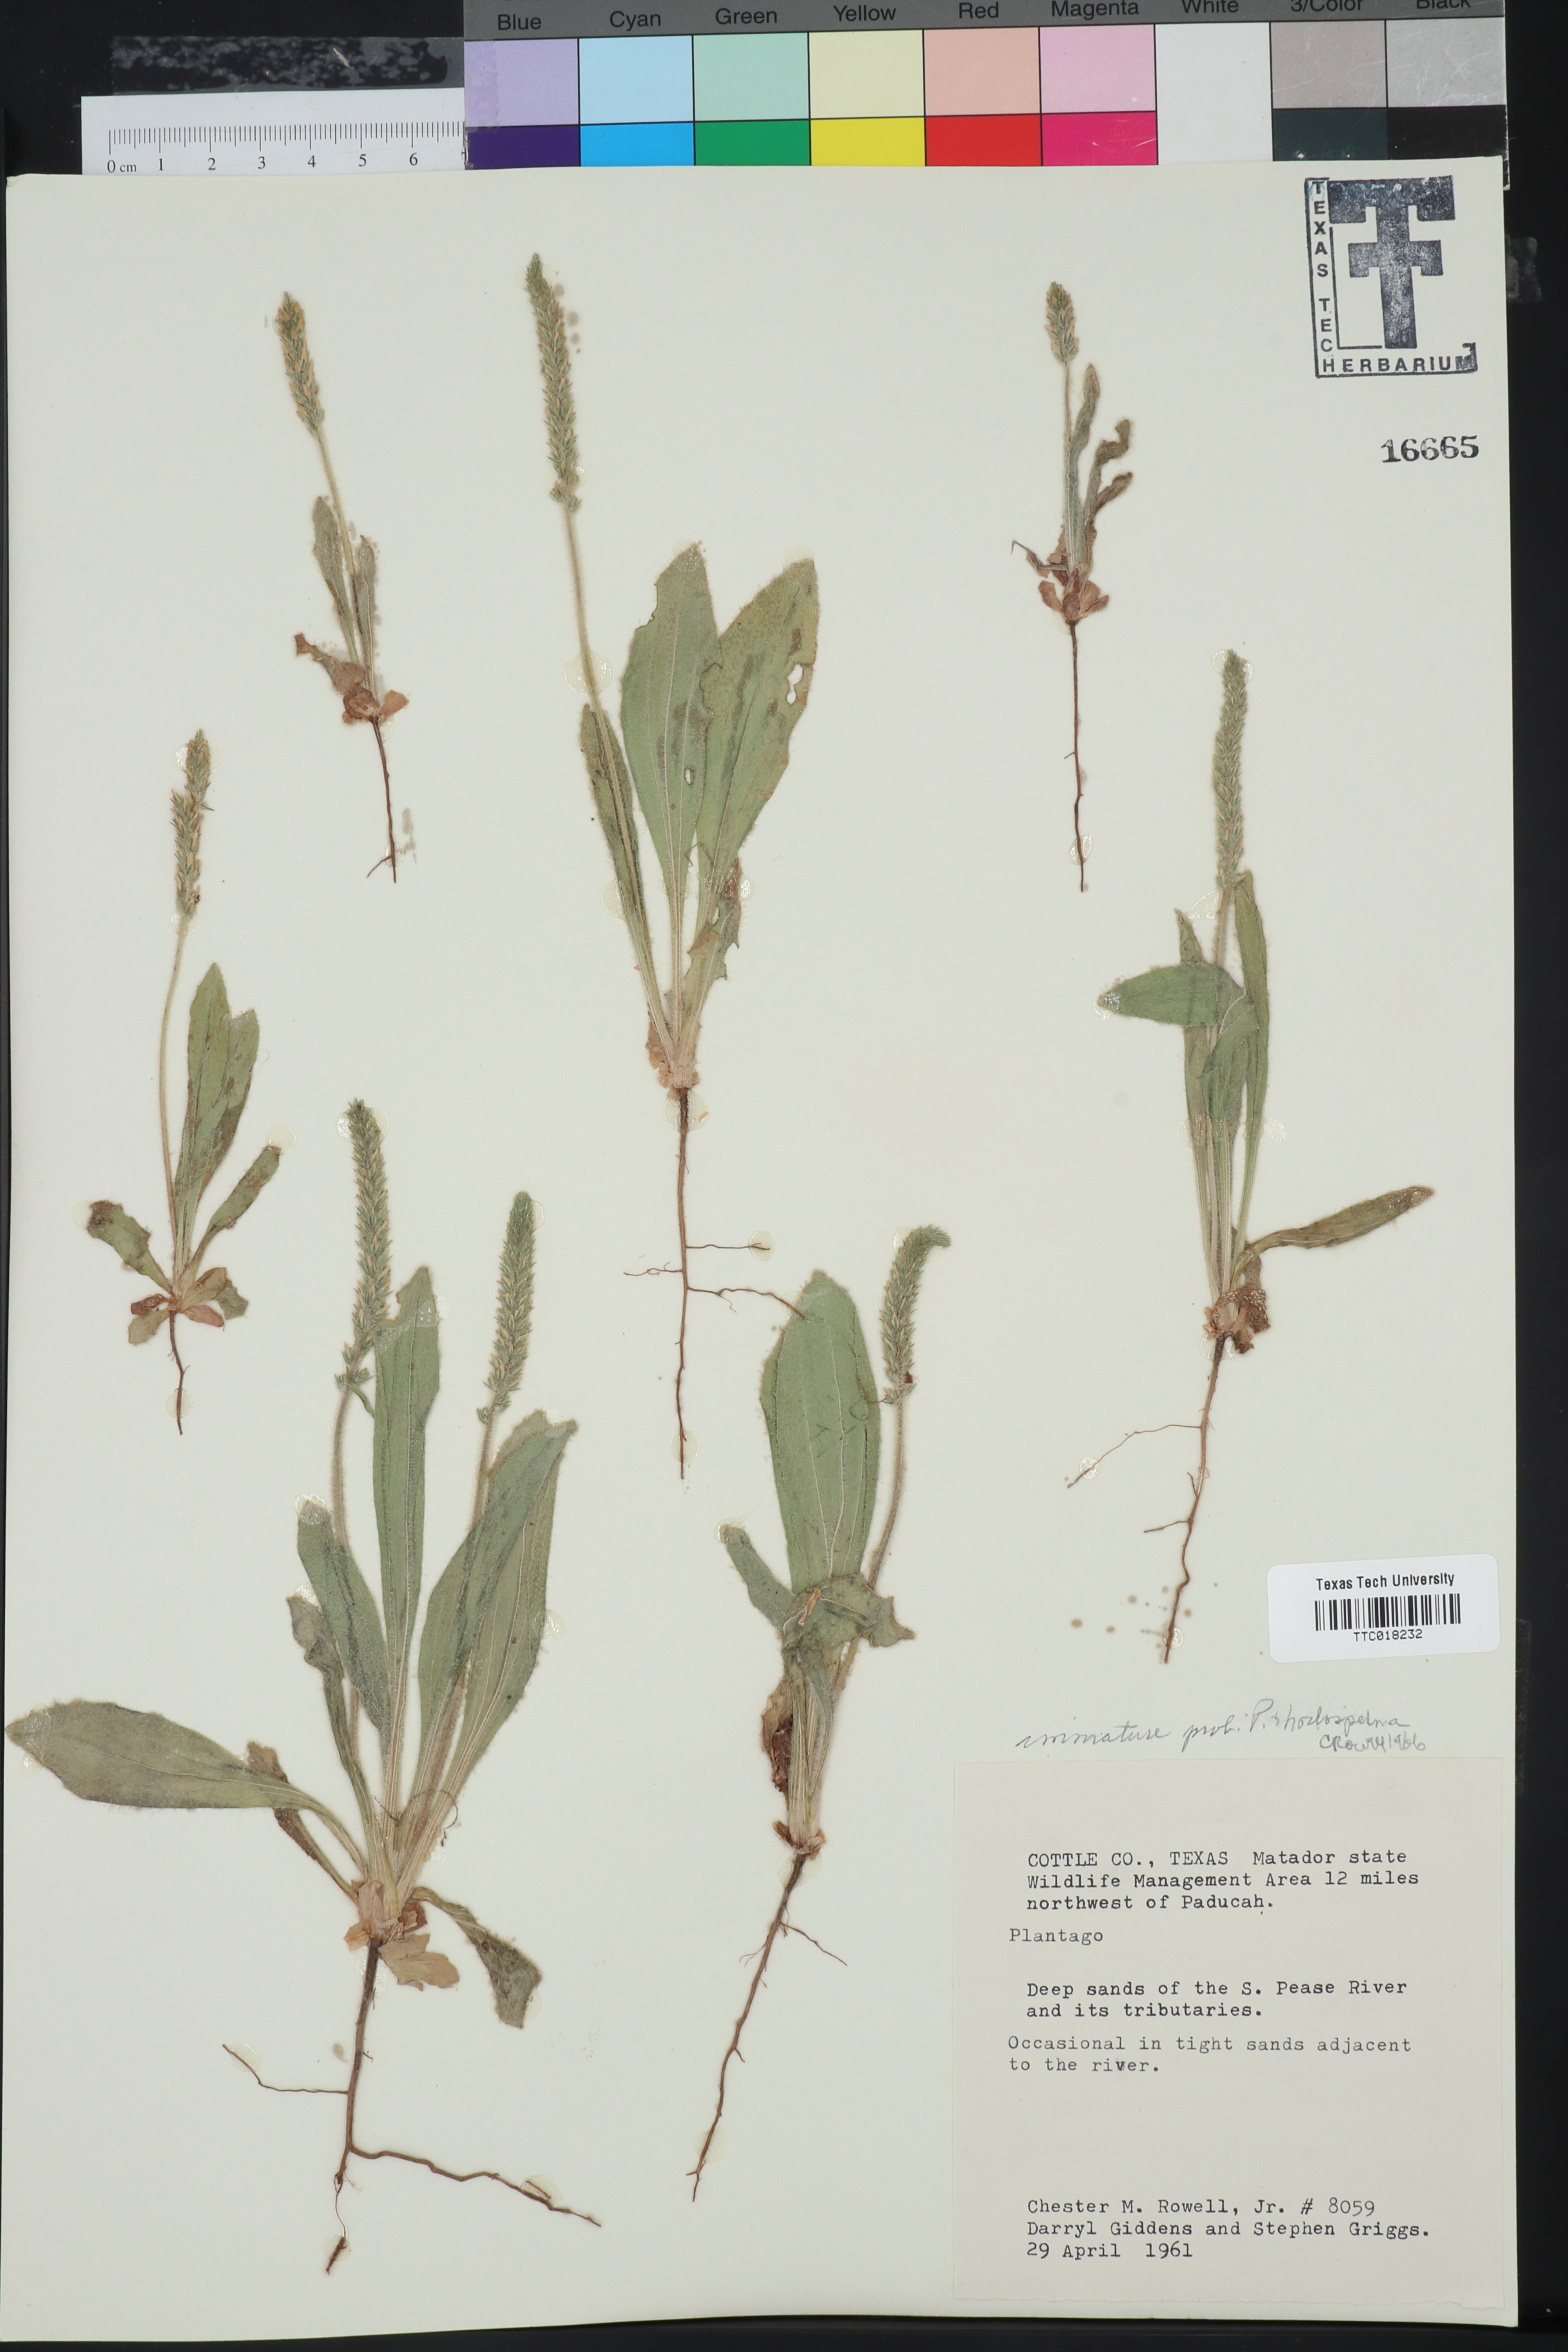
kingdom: Plantae
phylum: Tracheophyta
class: Magnoliopsida
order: Lamiales
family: Plantaginaceae
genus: Plantago
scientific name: Plantago rhodosperma
